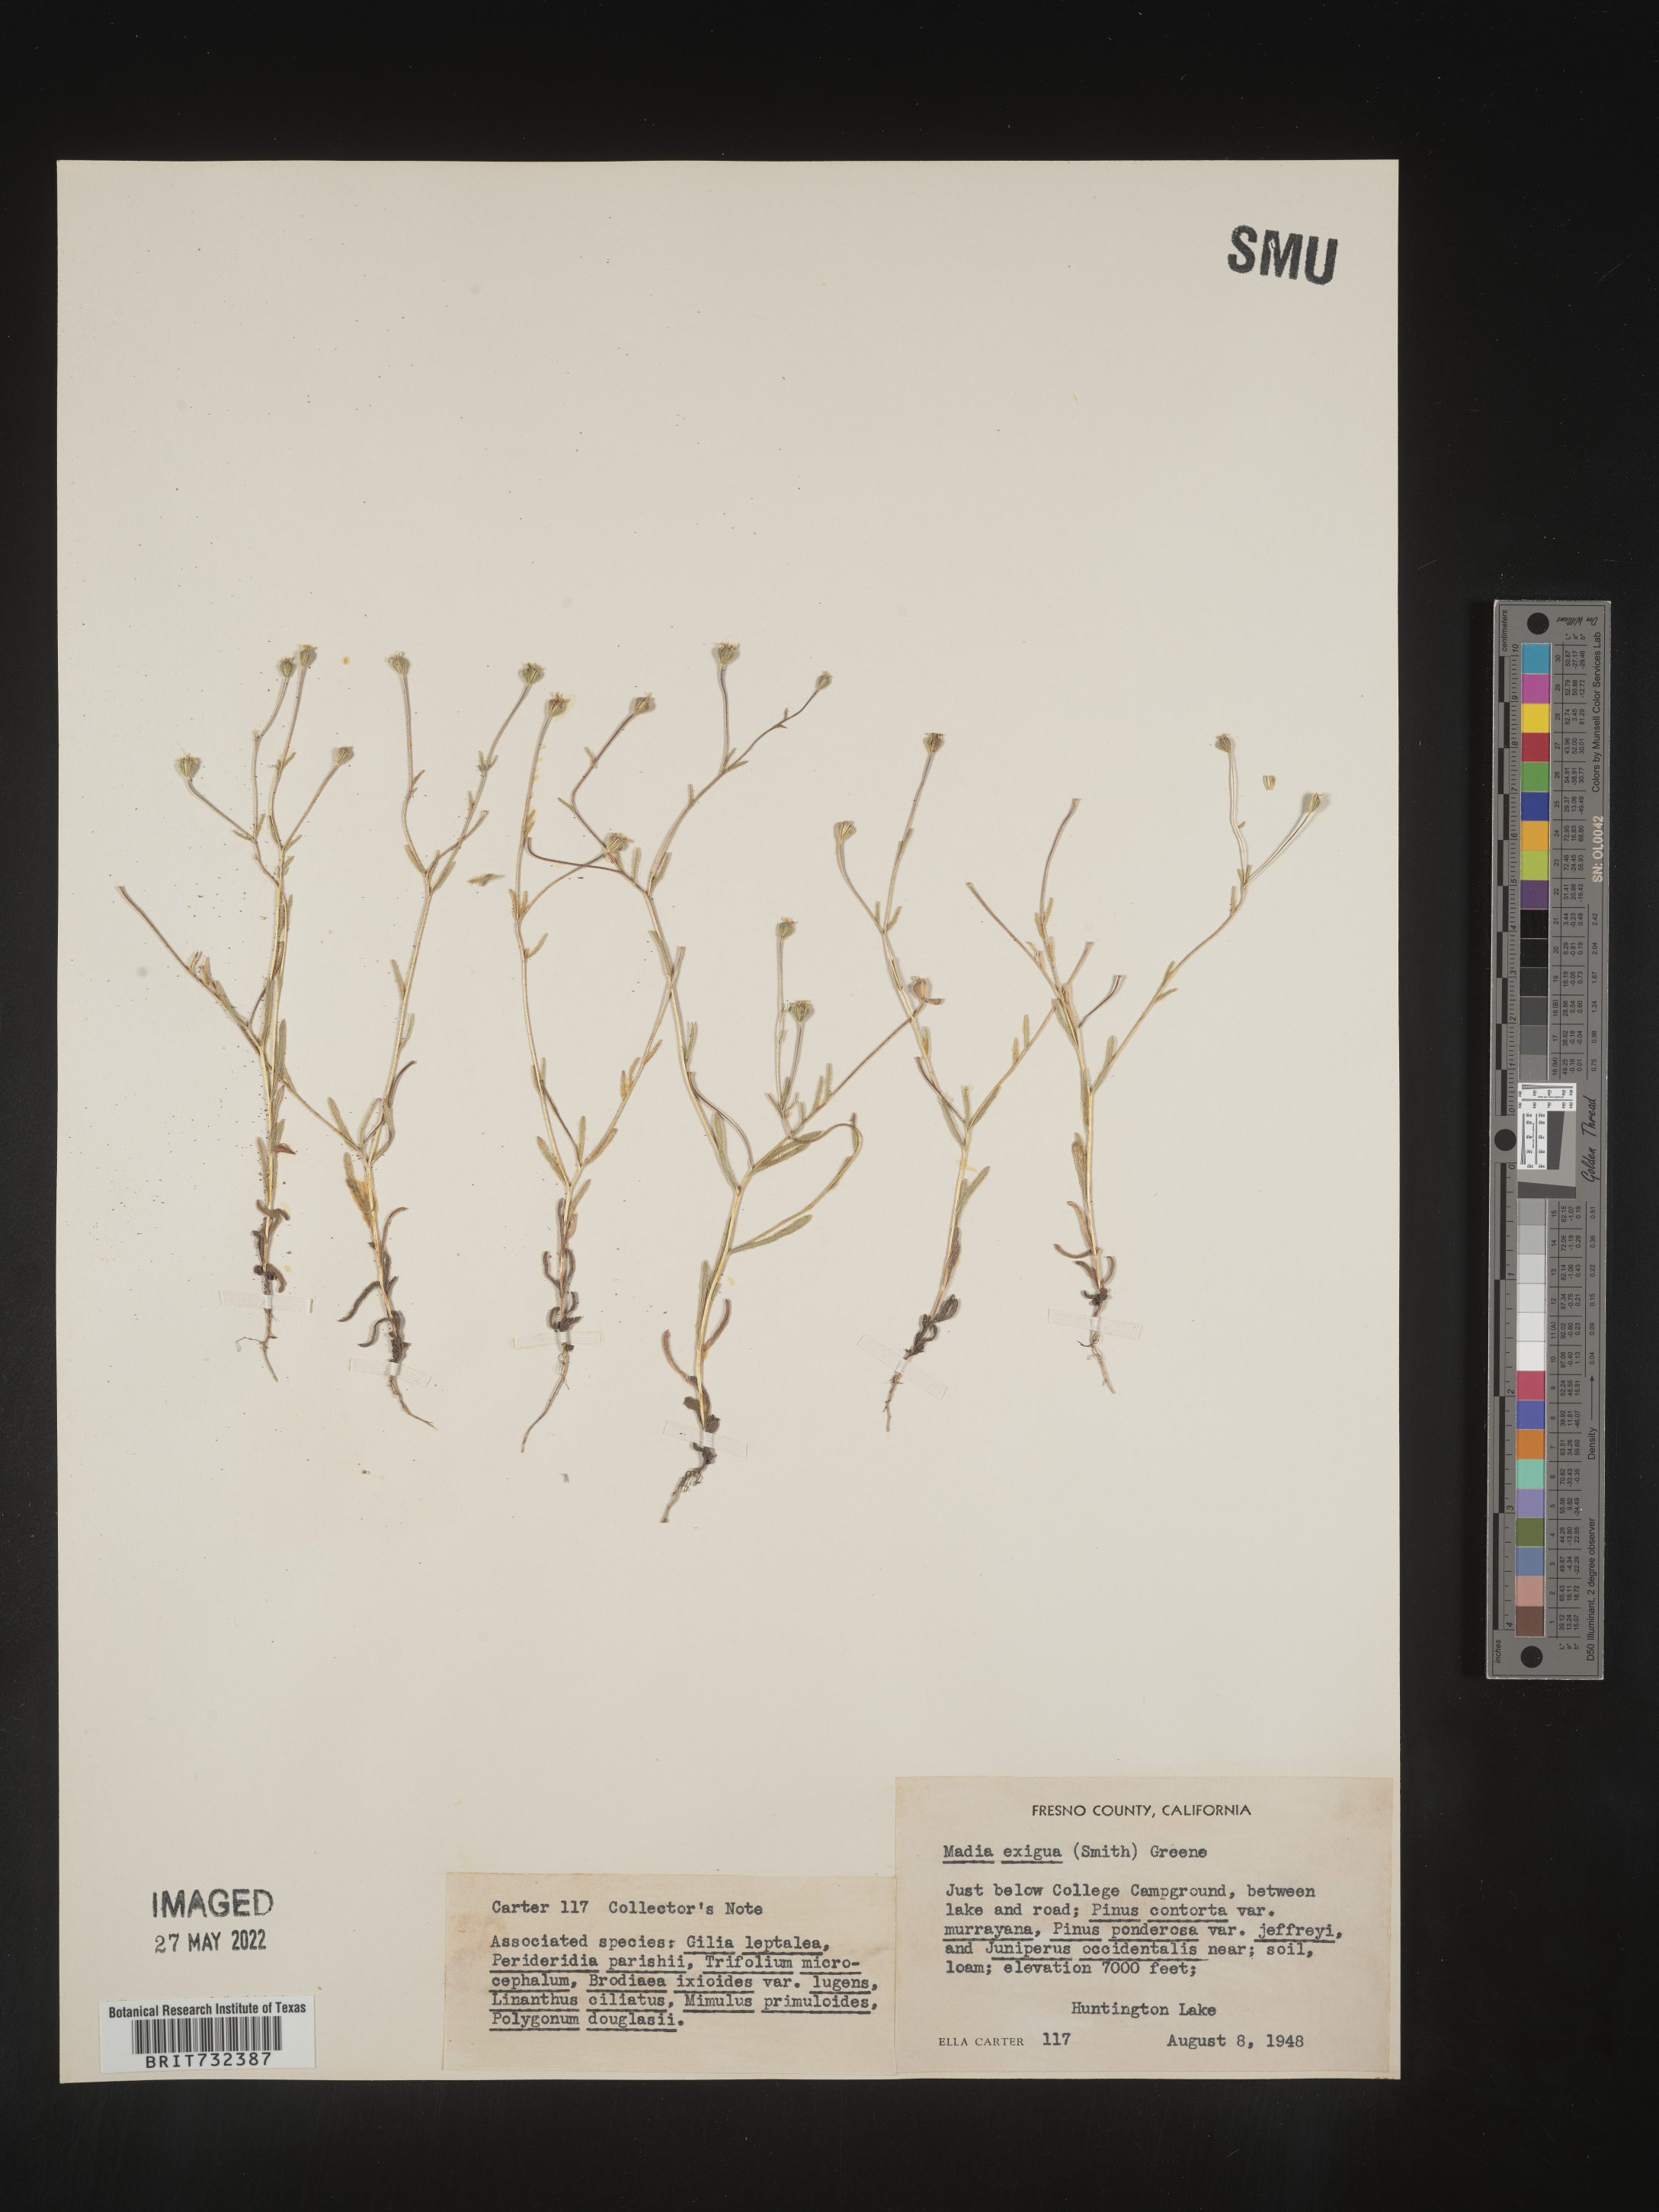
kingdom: Plantae
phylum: Tracheophyta
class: Magnoliopsida
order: Asterales
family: Asteraceae
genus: Madia
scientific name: Madia
